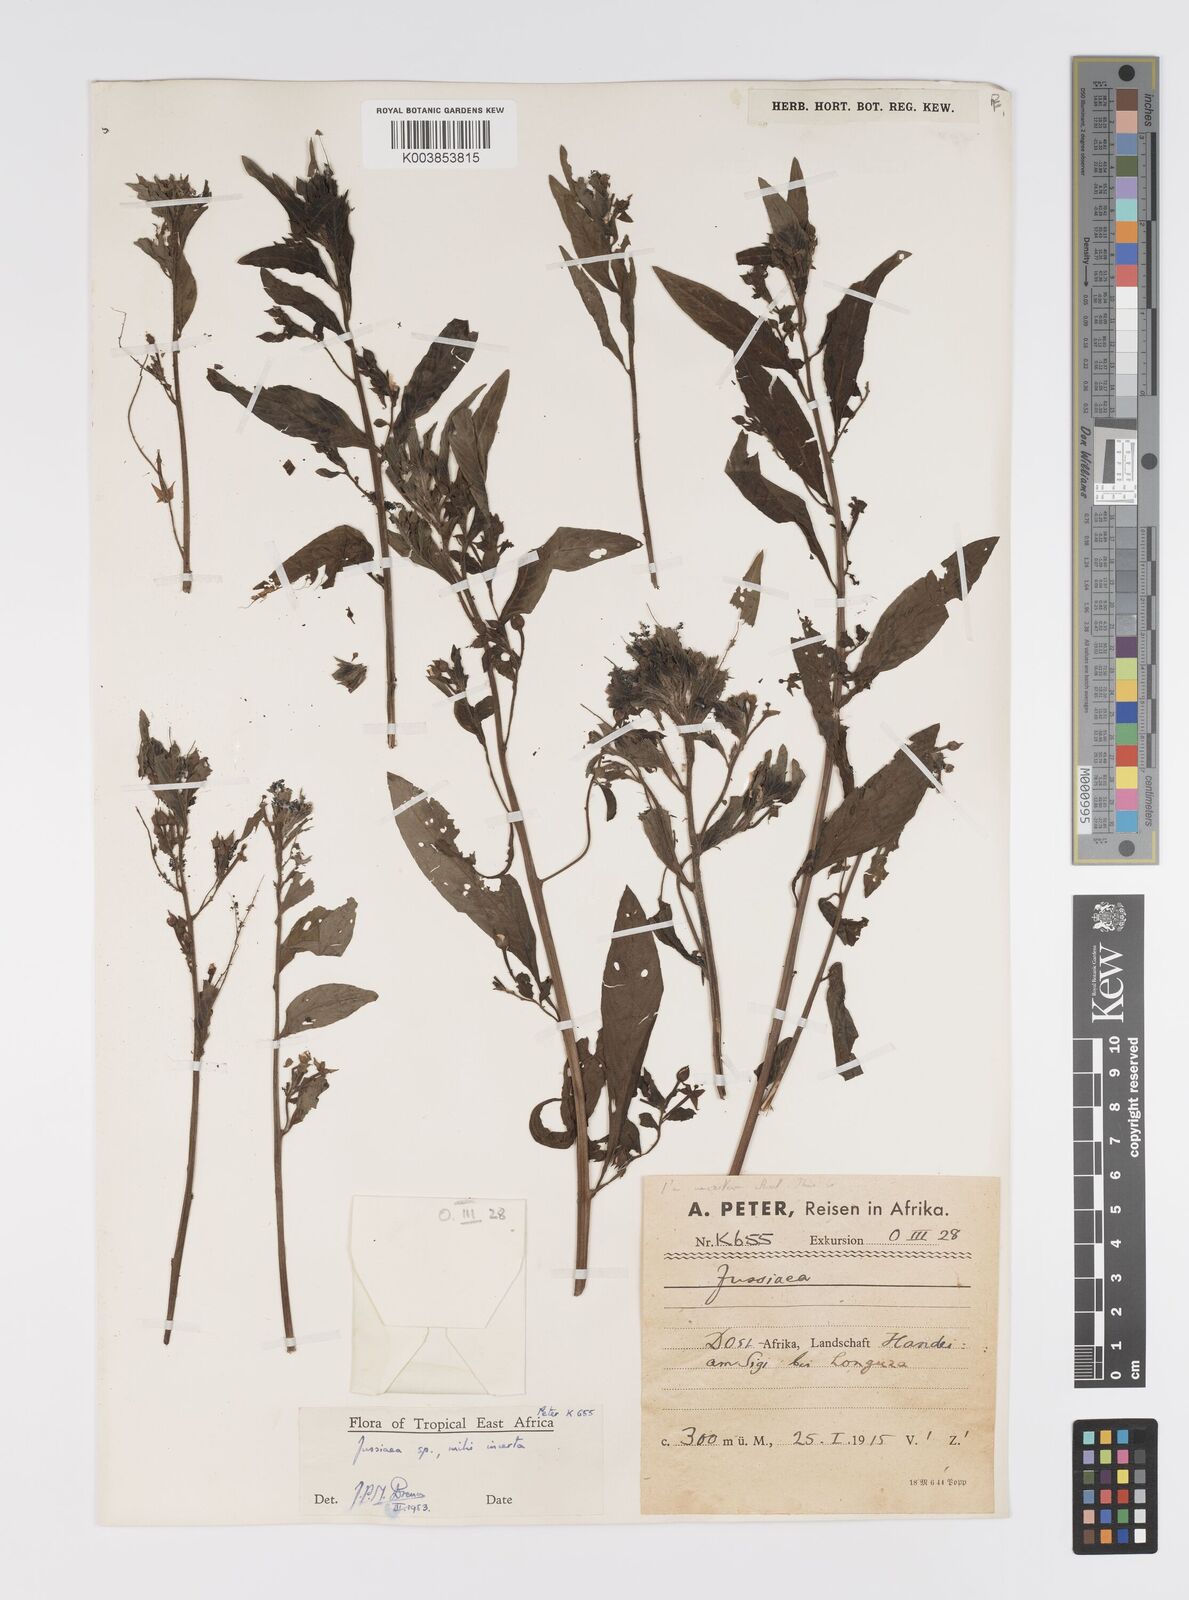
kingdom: Plantae
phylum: Tracheophyta
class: Magnoliopsida
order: Myrtales
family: Onagraceae
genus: Ludwigia
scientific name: Ludwigia
